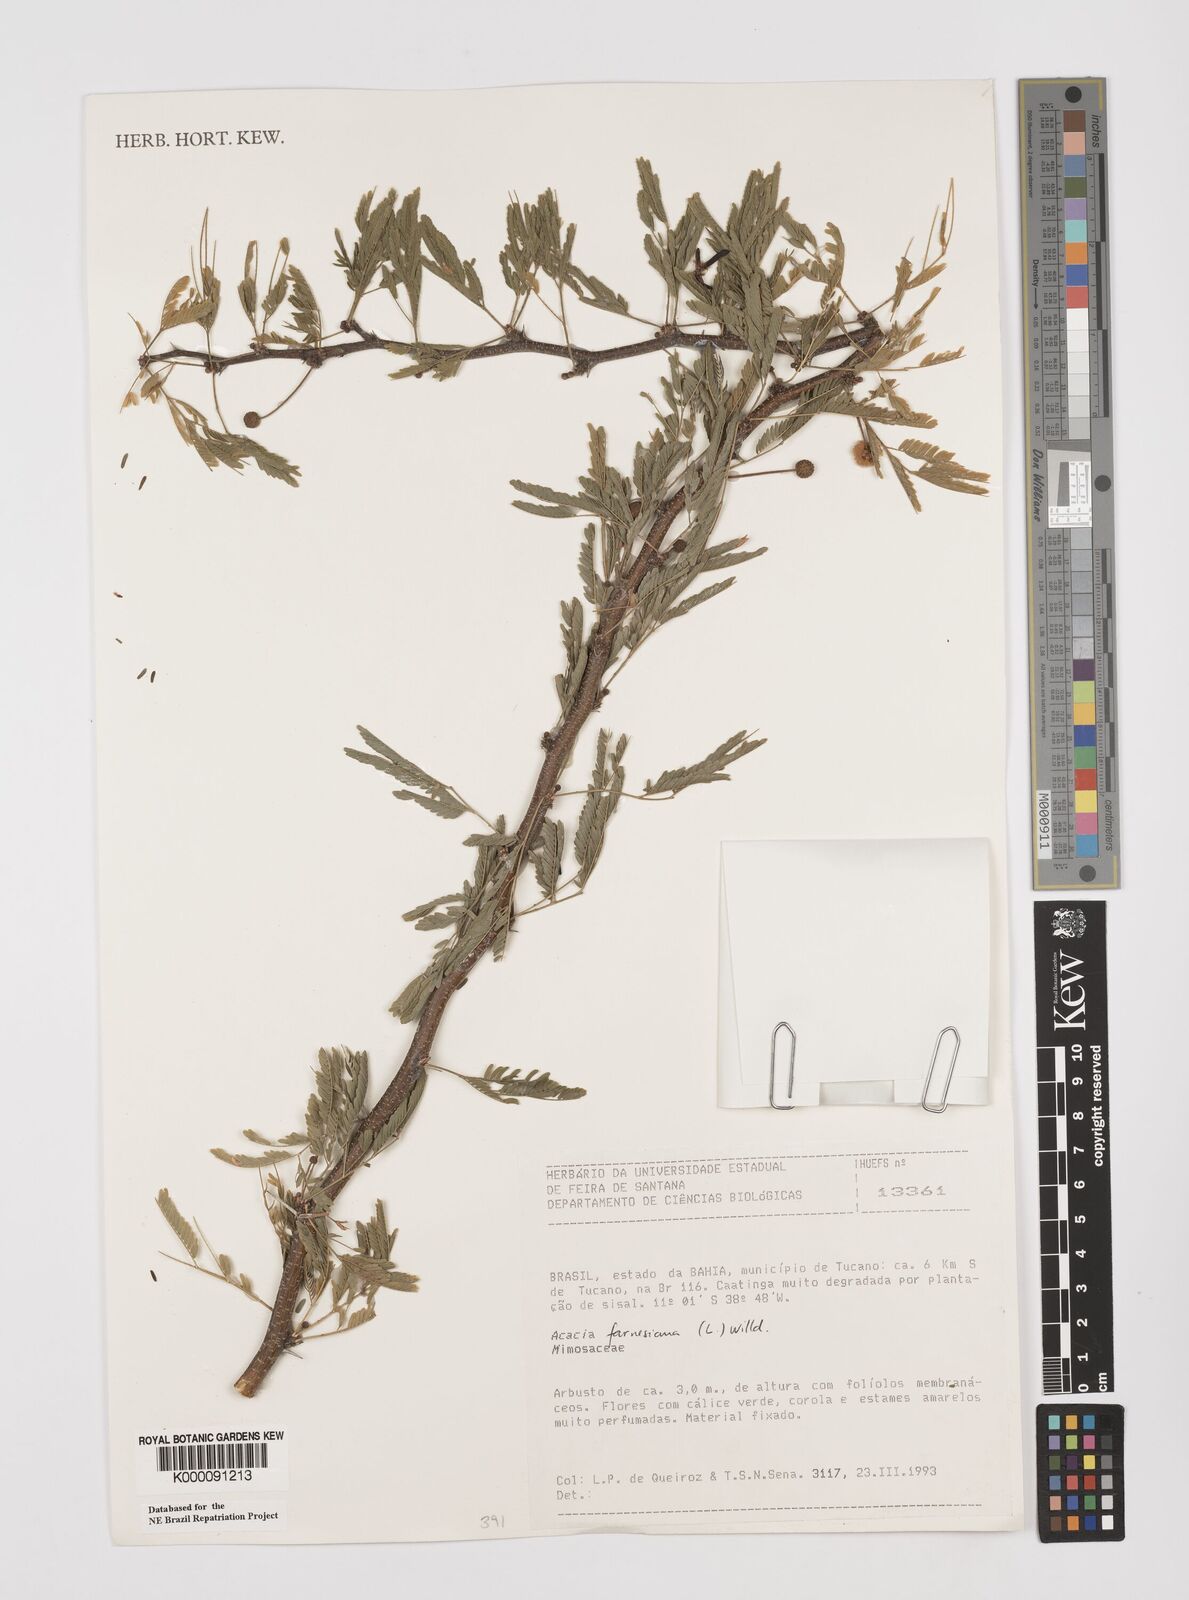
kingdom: Plantae
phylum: Tracheophyta
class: Magnoliopsida
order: Fabales
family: Fabaceae
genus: Vachellia
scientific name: Vachellia farnesiana
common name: Sweet acacia
